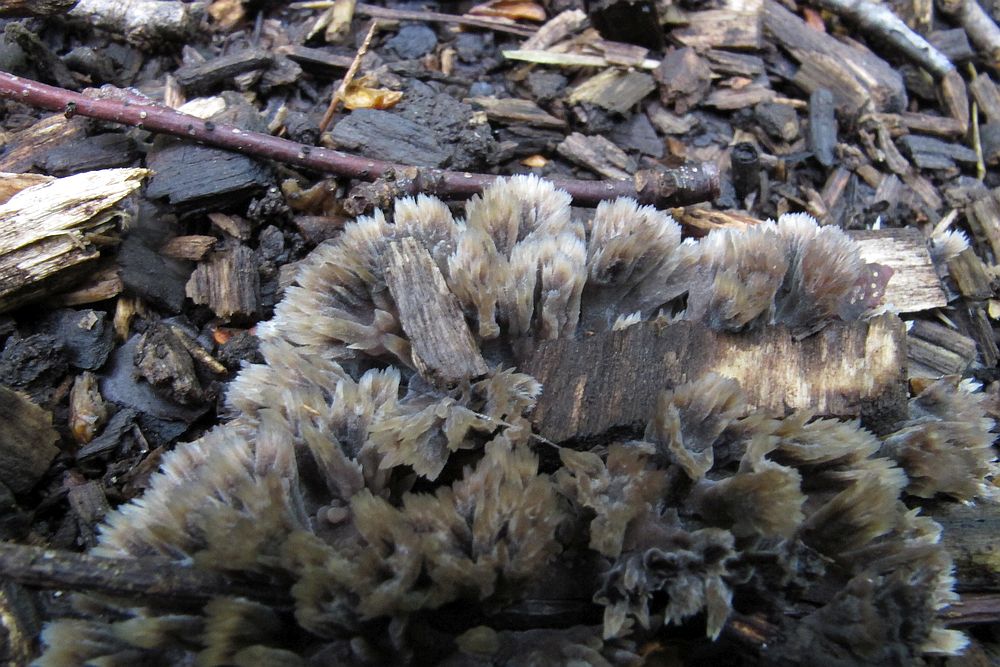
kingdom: Fungi
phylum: Basidiomycota
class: Agaricomycetes
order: Thelephorales
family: Thelephoraceae
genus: Thelephora
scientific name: Thelephora penicillata
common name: fladtrådt frynsesvamp
